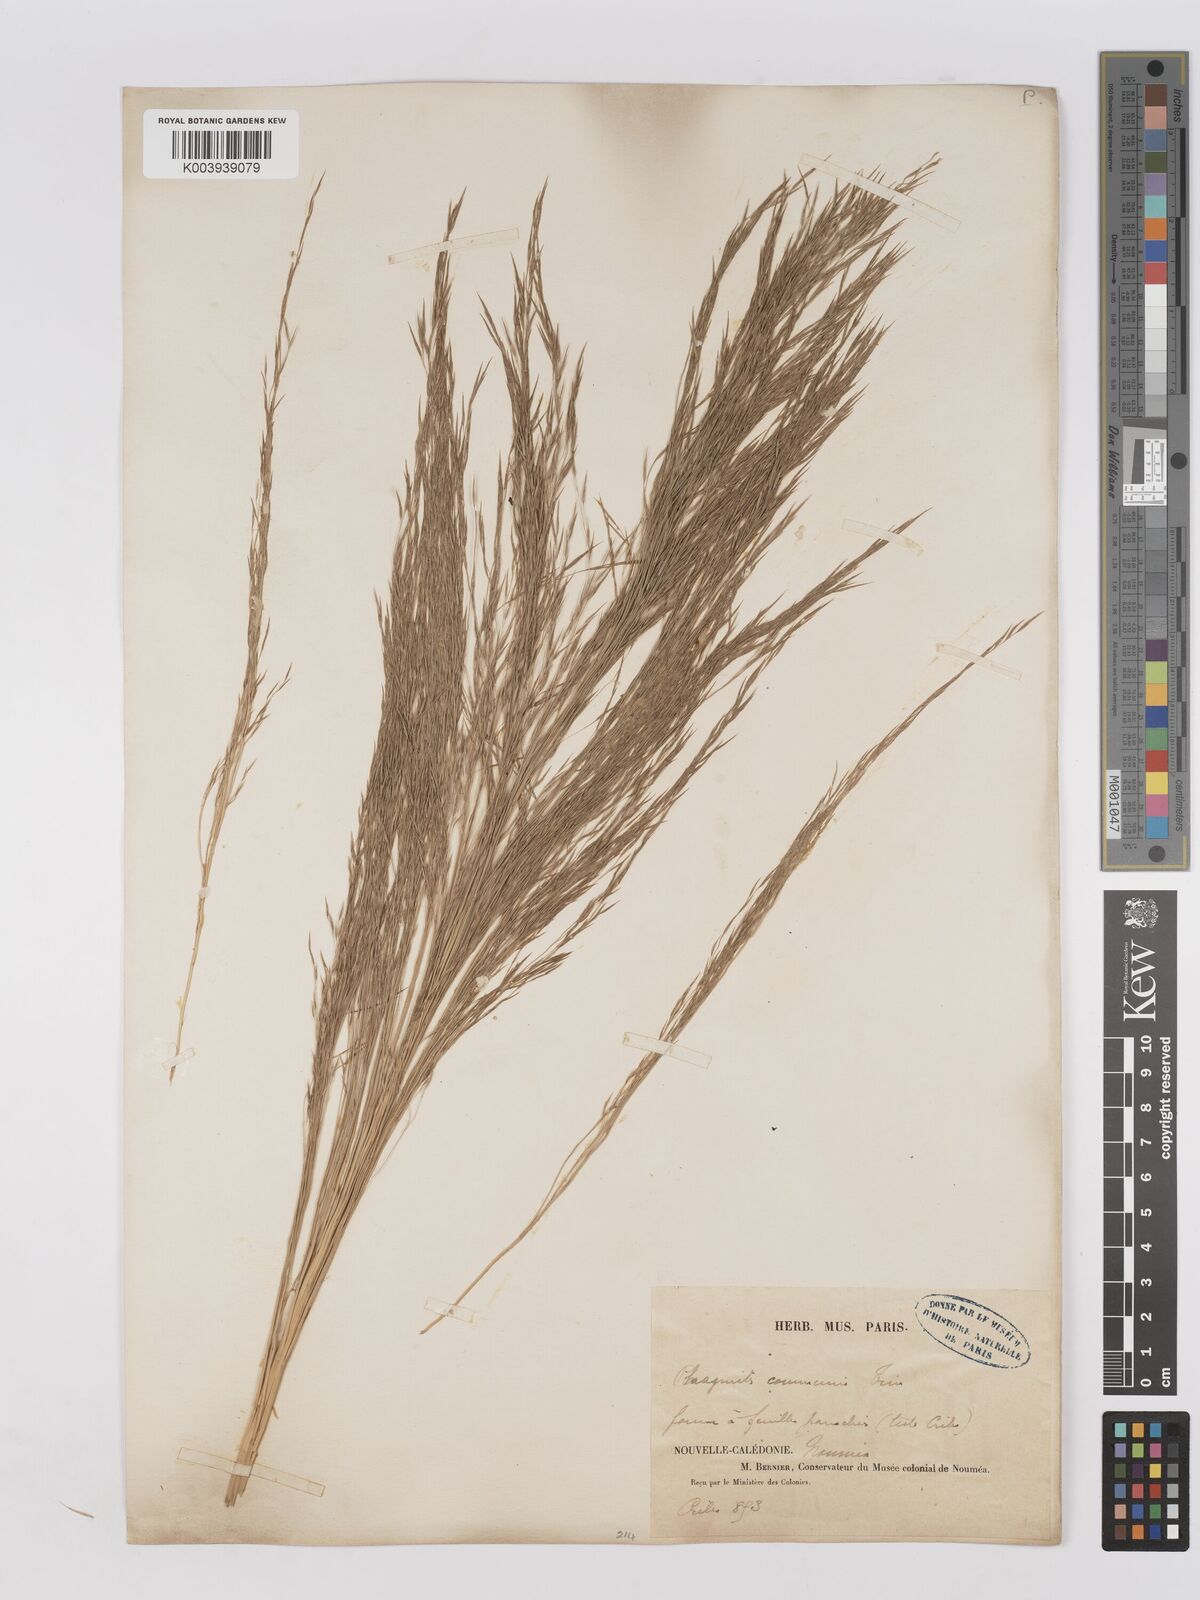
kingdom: Plantae
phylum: Tracheophyta
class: Liliopsida
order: Poales
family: Poaceae
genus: Phragmites
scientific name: Phragmites karka
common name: Tropical reed
